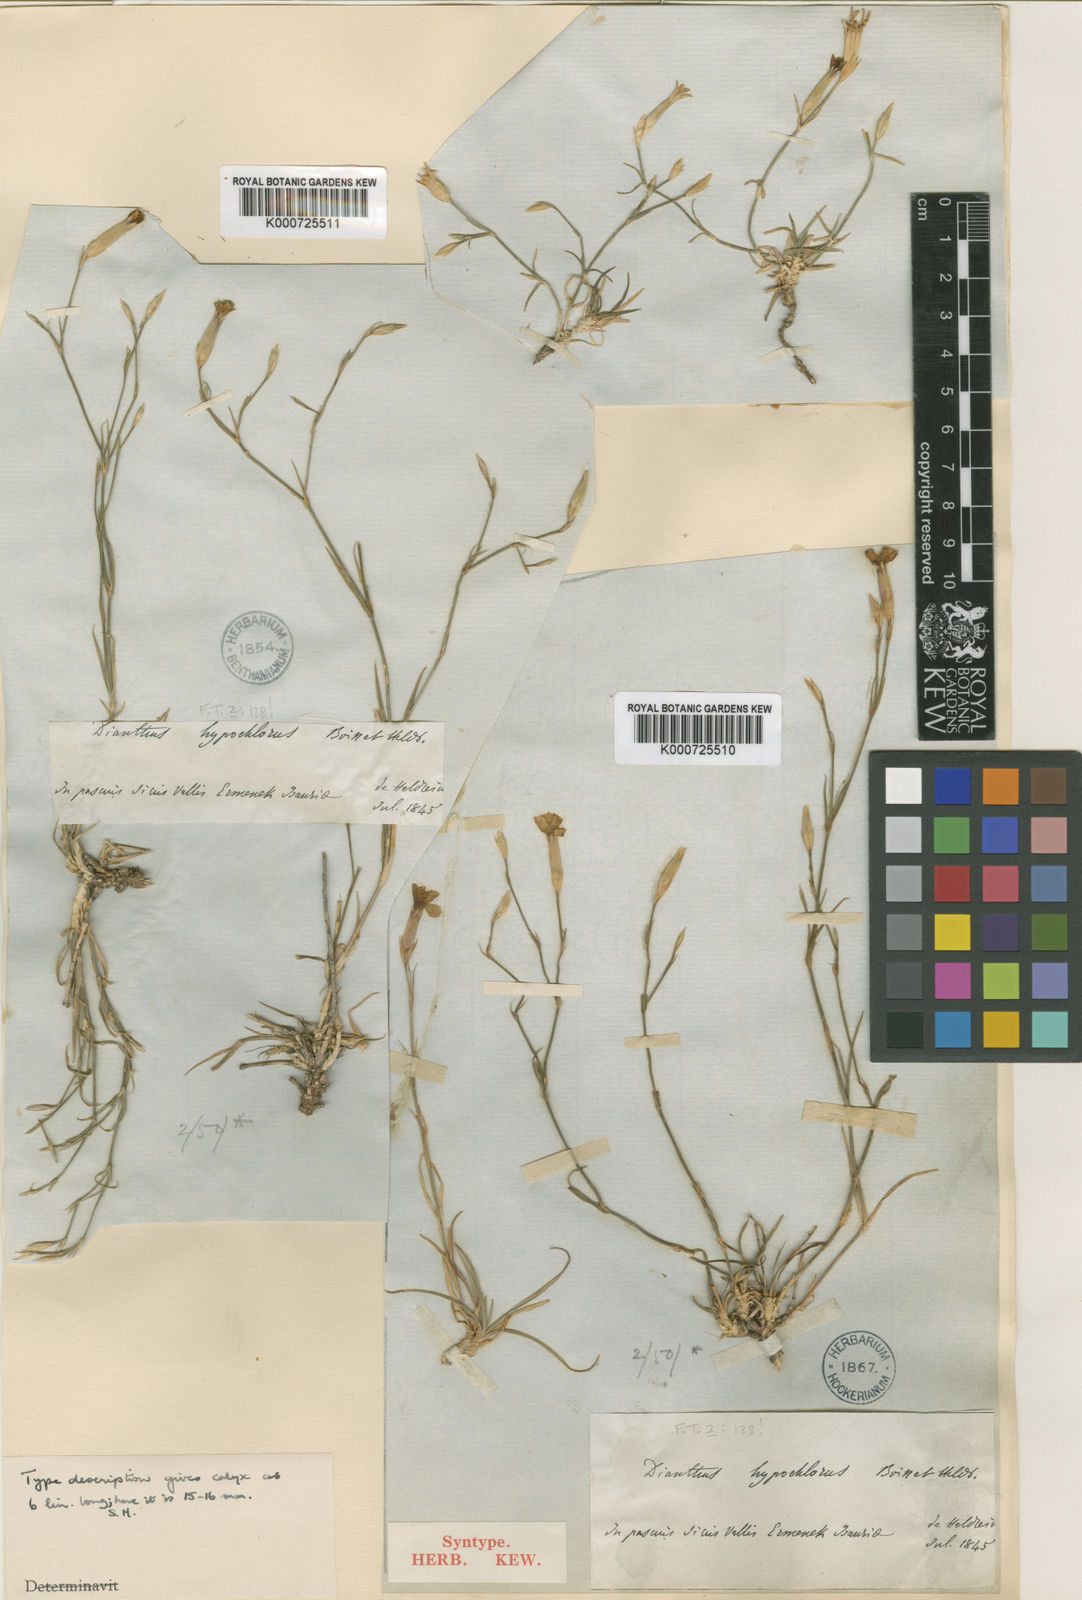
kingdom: Plantae
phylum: Tracheophyta
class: Magnoliopsida
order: Caryophyllales
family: Caryophyllaceae
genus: Dianthus
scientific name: Dianthus zonatus
